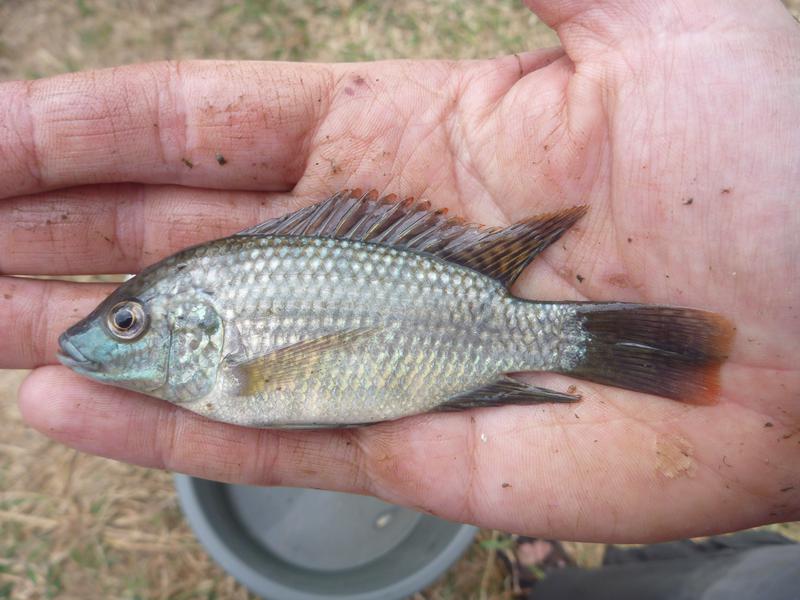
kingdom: Animalia
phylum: Chordata
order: Perciformes
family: Cichlidae
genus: Oreochromis
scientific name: Oreochromis shiranus
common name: Chilwa tilapia
